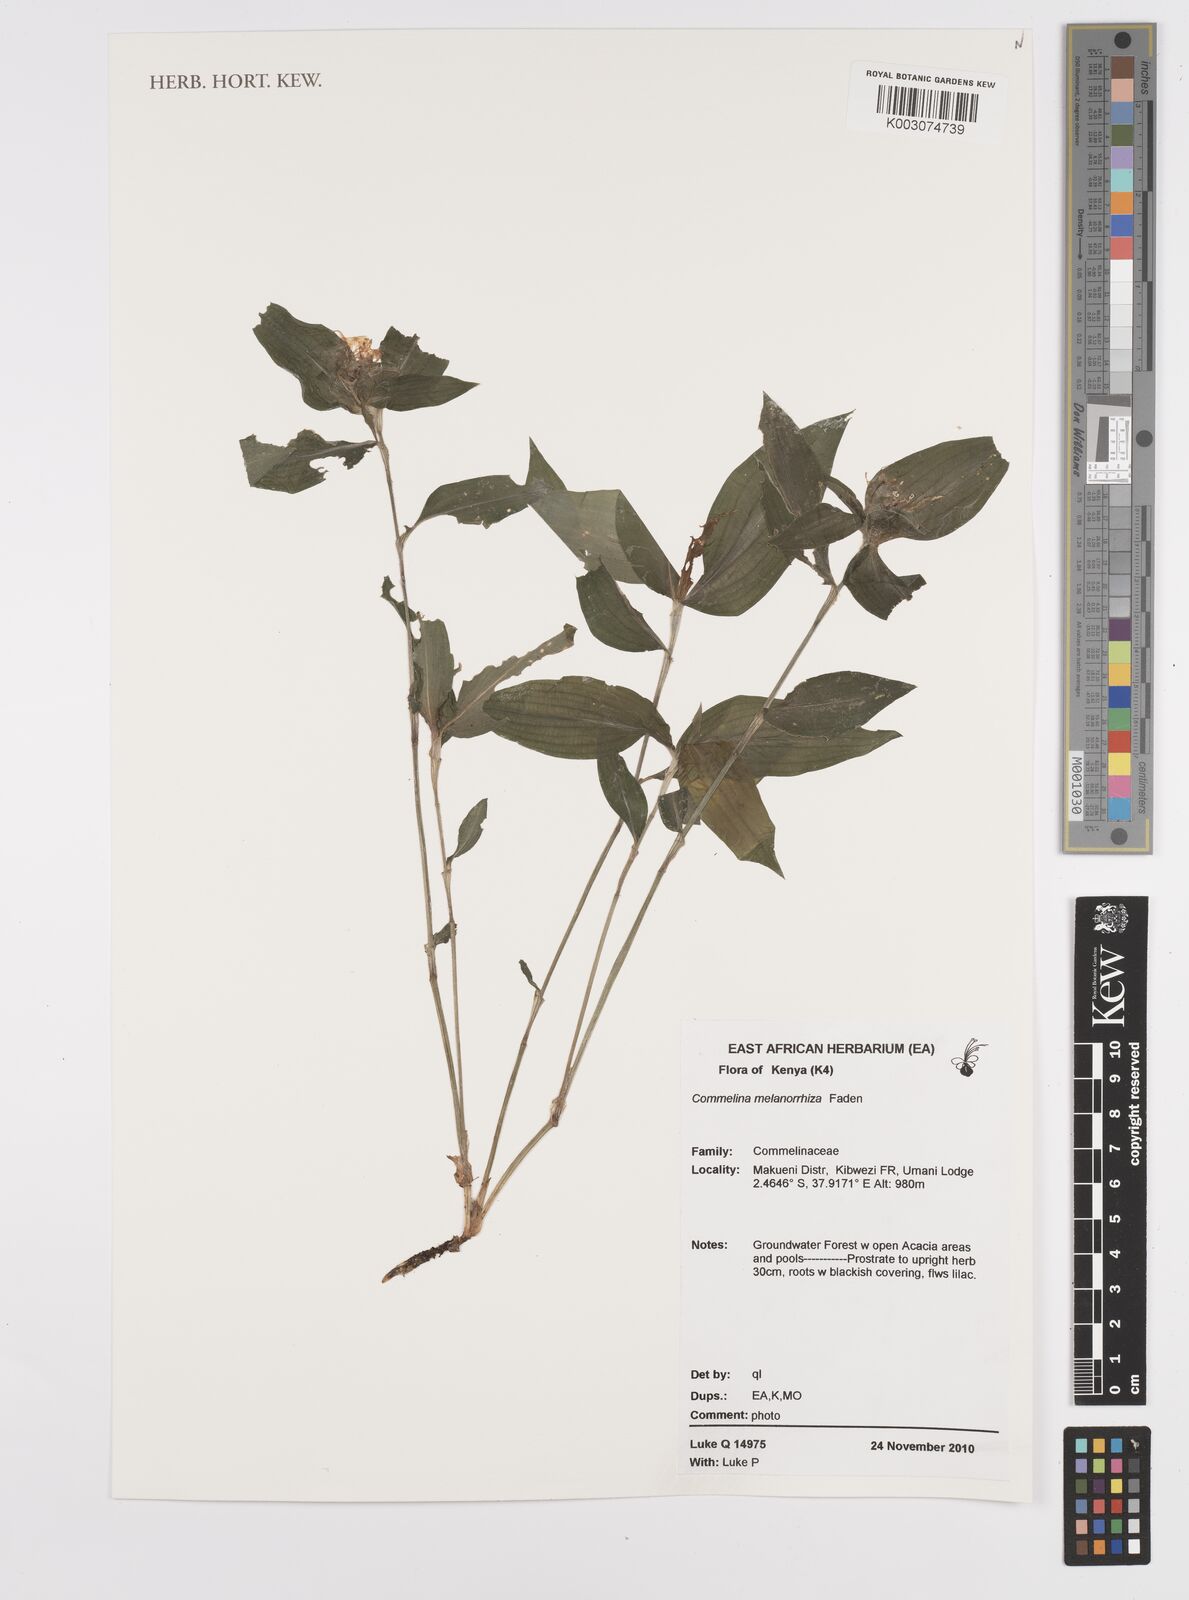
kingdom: Plantae
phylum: Tracheophyta
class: Liliopsida
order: Commelinales
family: Commelinaceae
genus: Commelina
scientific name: Commelina melanorrhiza
